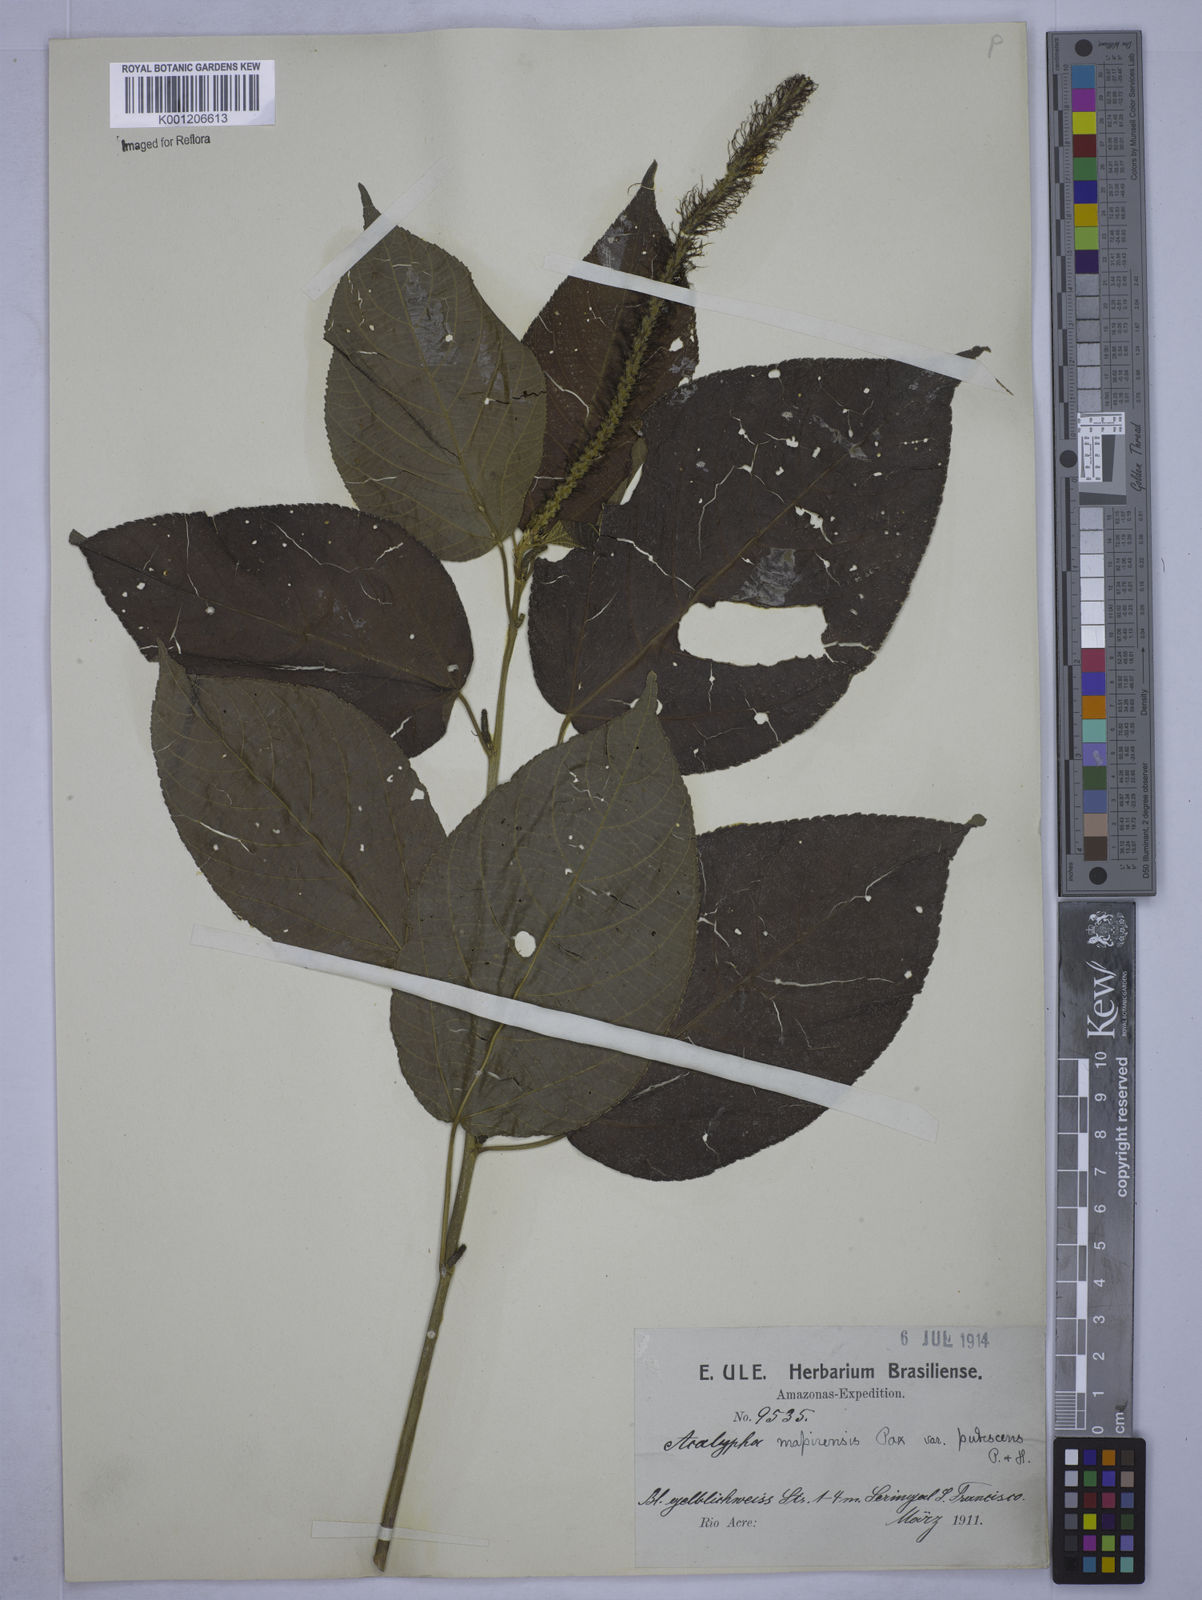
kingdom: Plantae
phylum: Tracheophyta
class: Magnoliopsida
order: Malpighiales
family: Euphorbiaceae
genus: Acalypha
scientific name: Acalypha stricta
